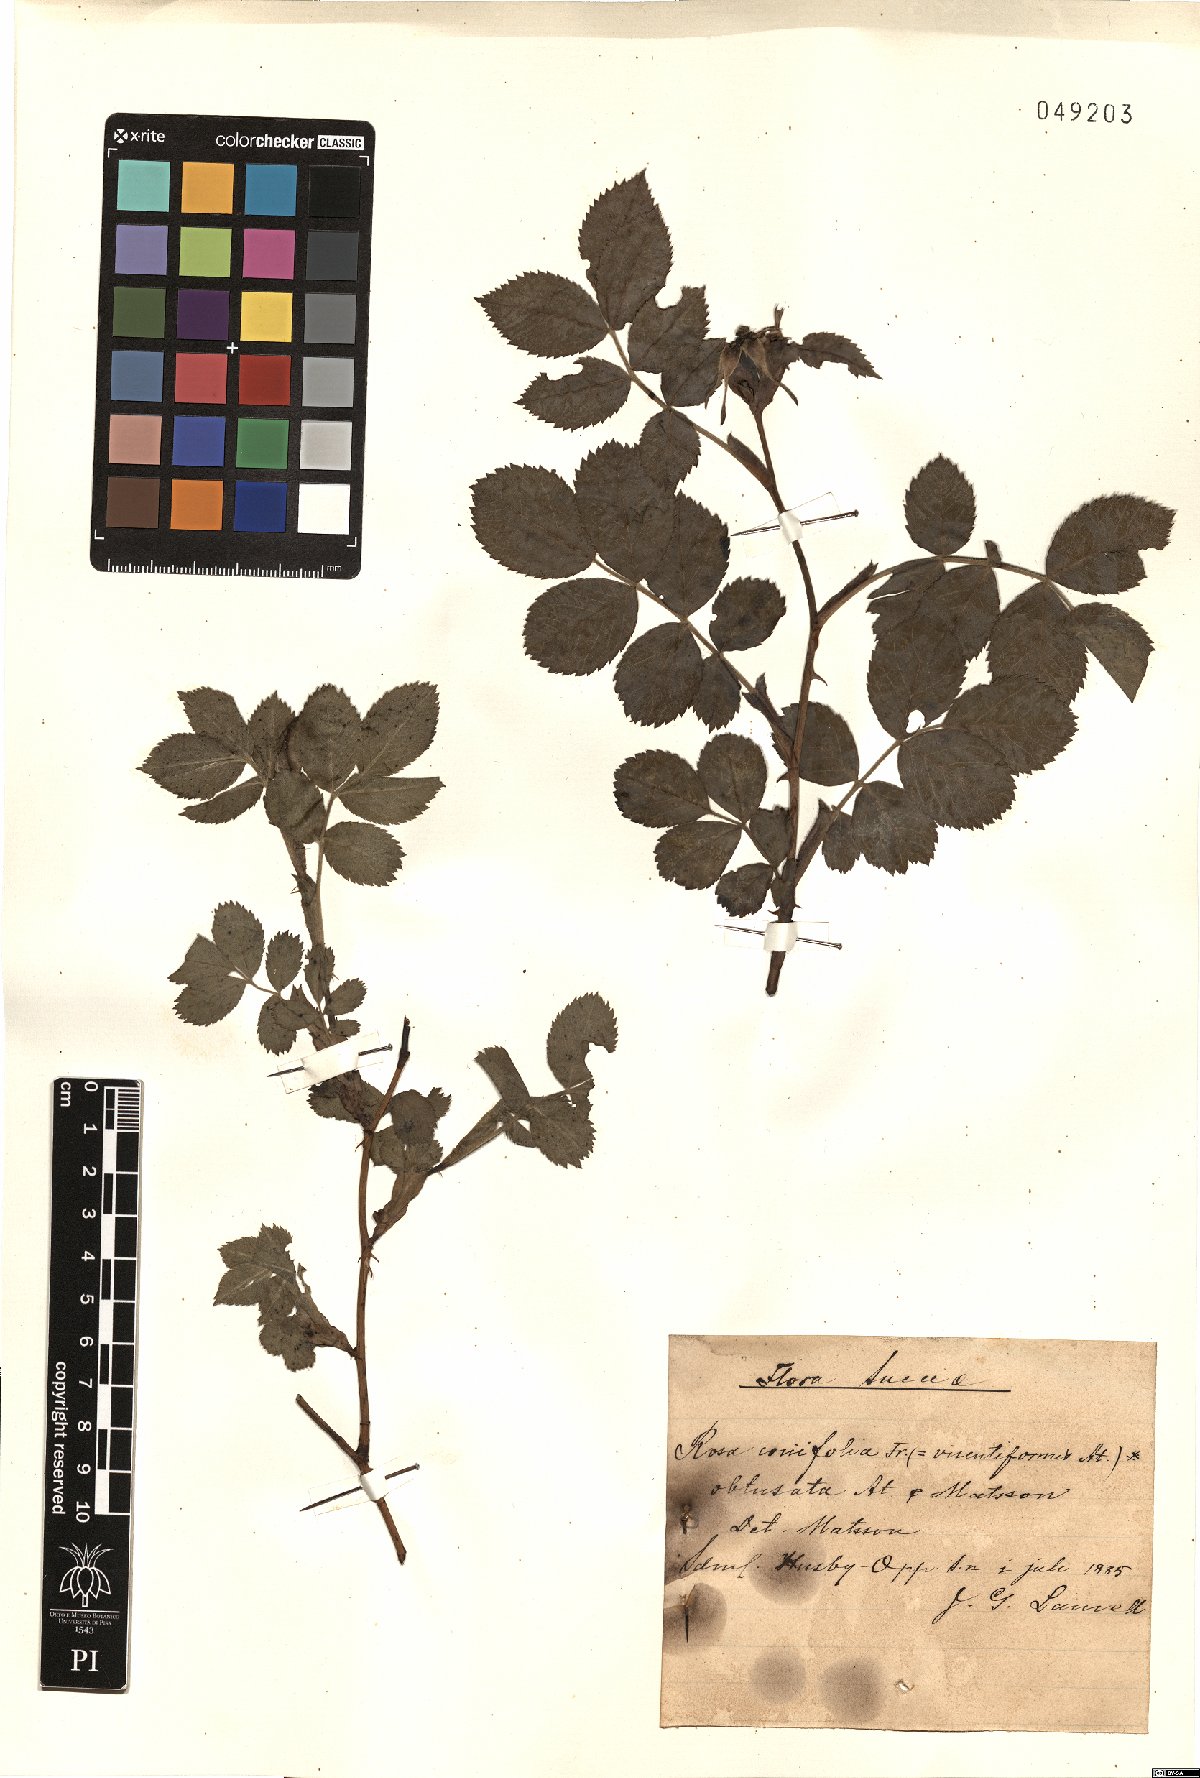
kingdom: Plantae
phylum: Tracheophyta
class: Magnoliopsida
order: Rosales
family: Rosaceae
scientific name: Rosaceae
